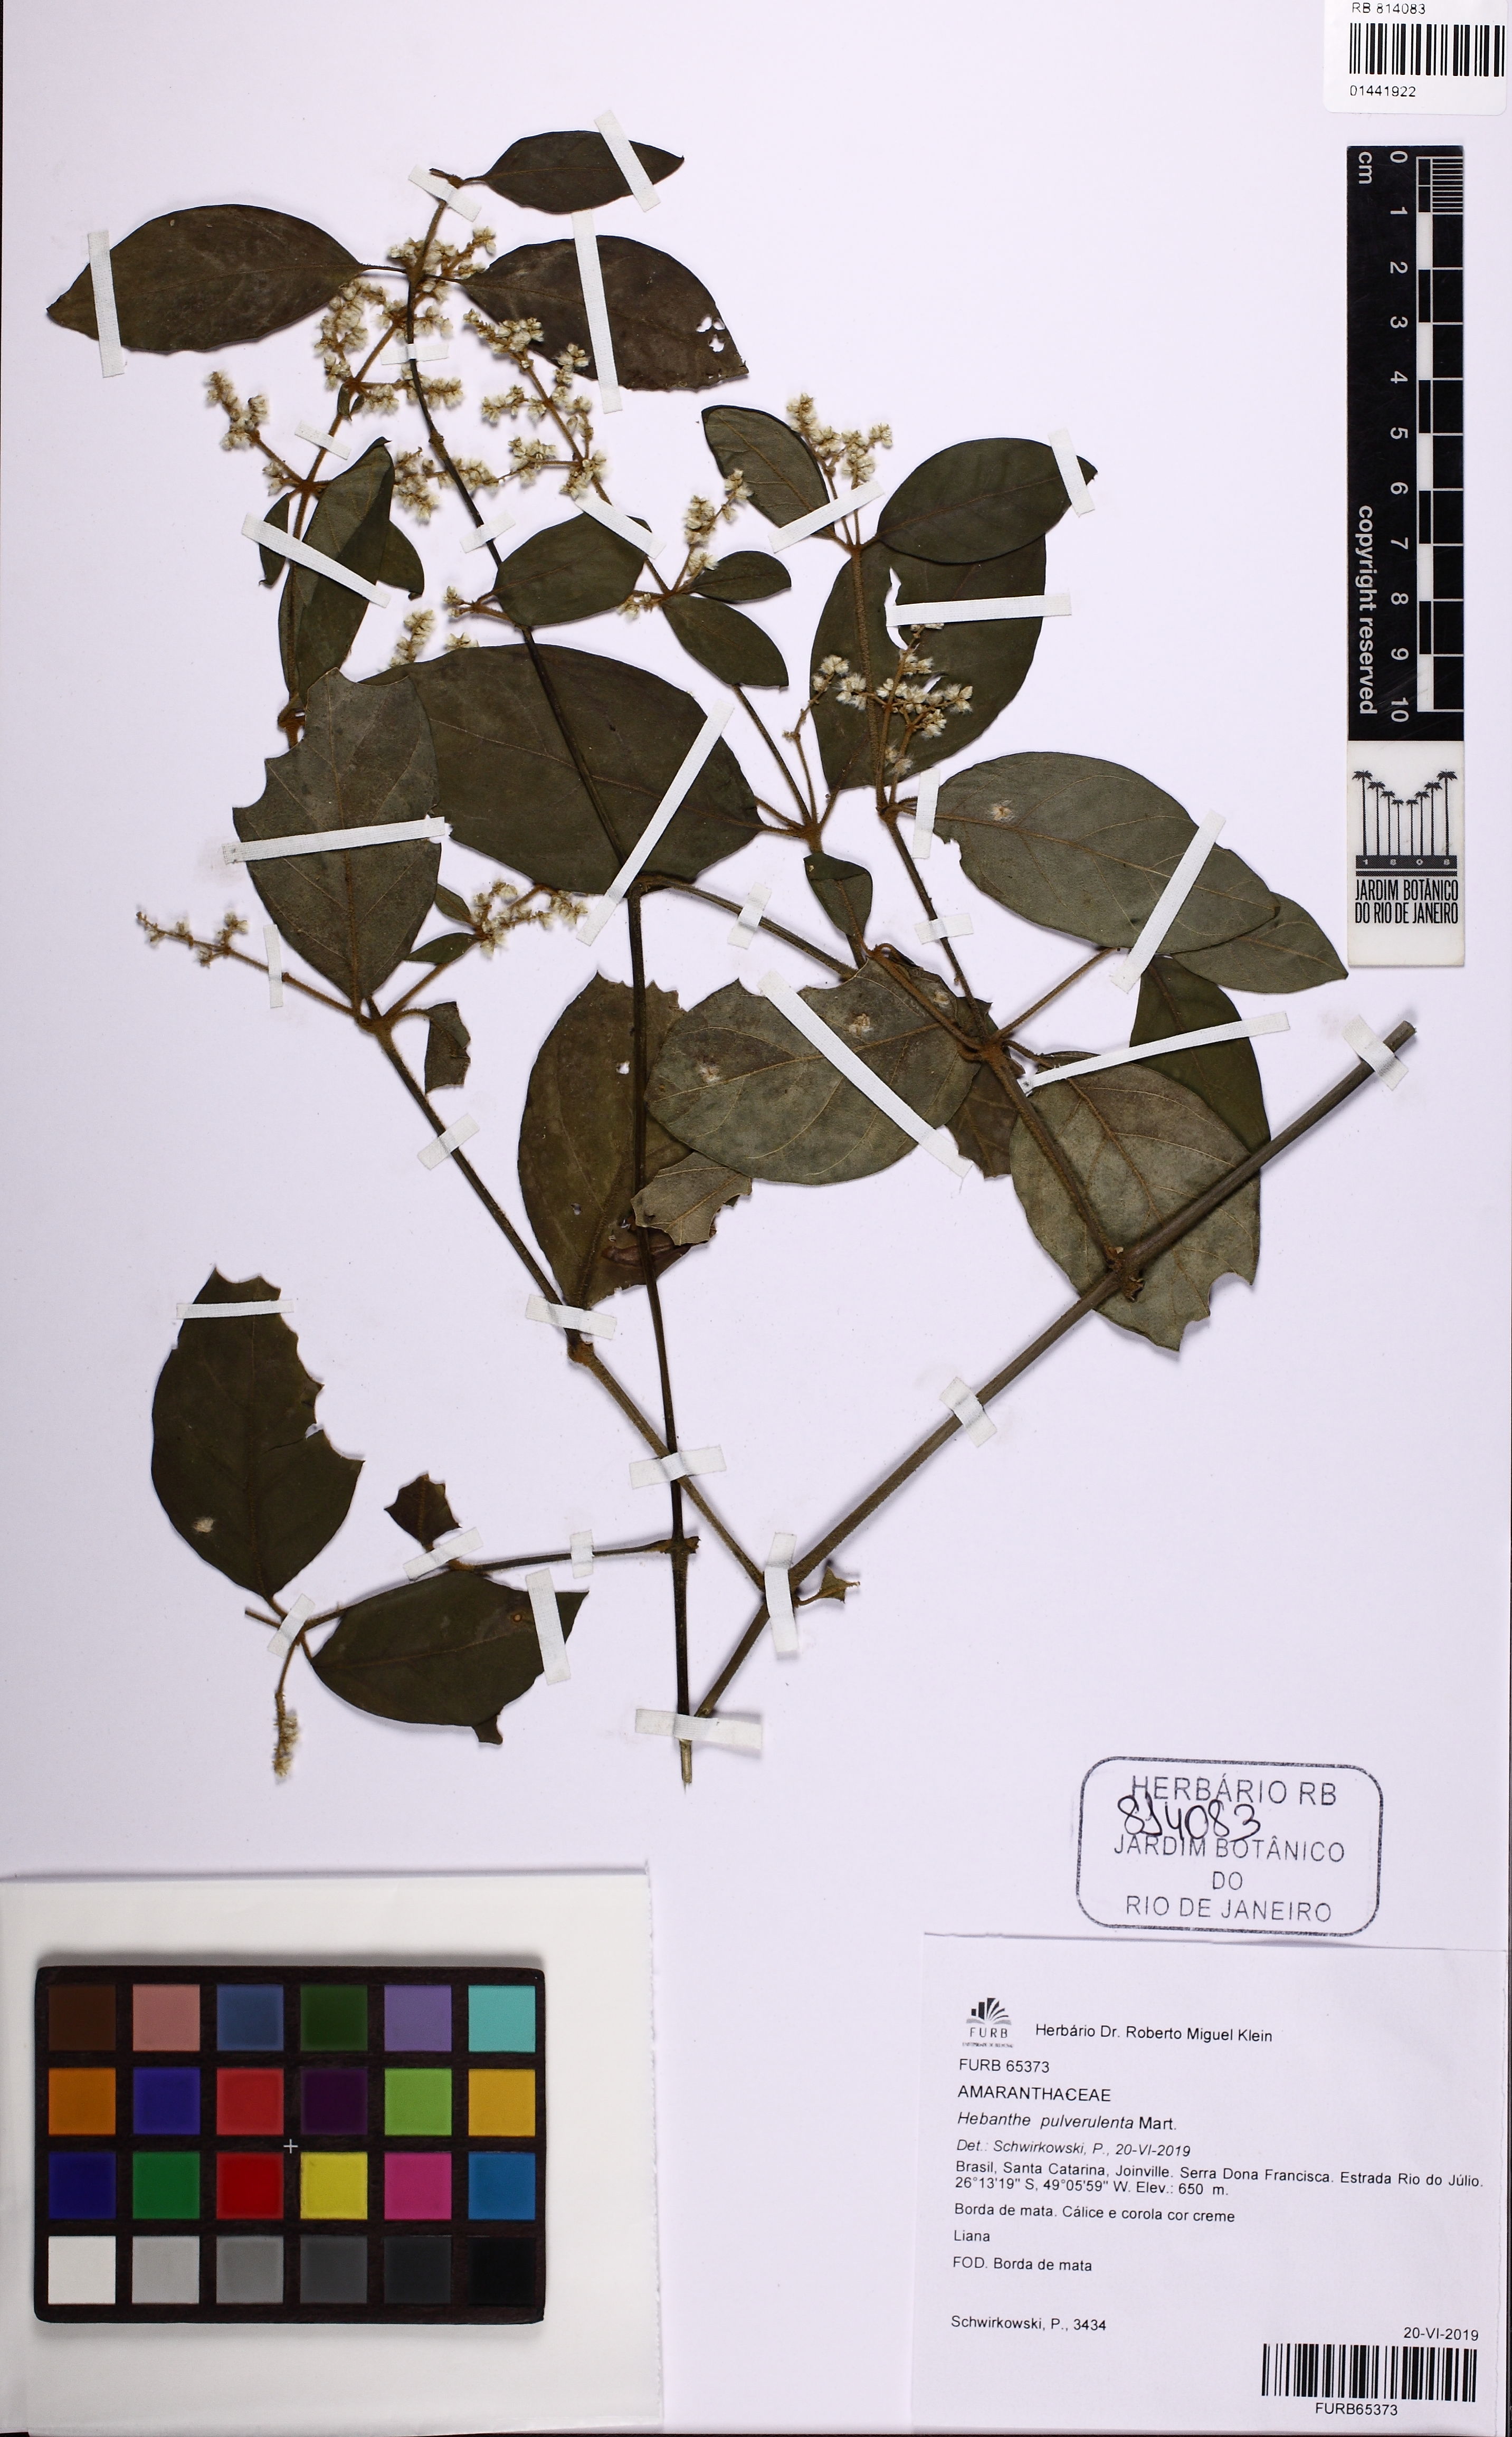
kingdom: Plantae
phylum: Tracheophyta
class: Magnoliopsida
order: Caryophyllales
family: Amaranthaceae
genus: Hebanthe
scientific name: Hebanthe pulverulenta
